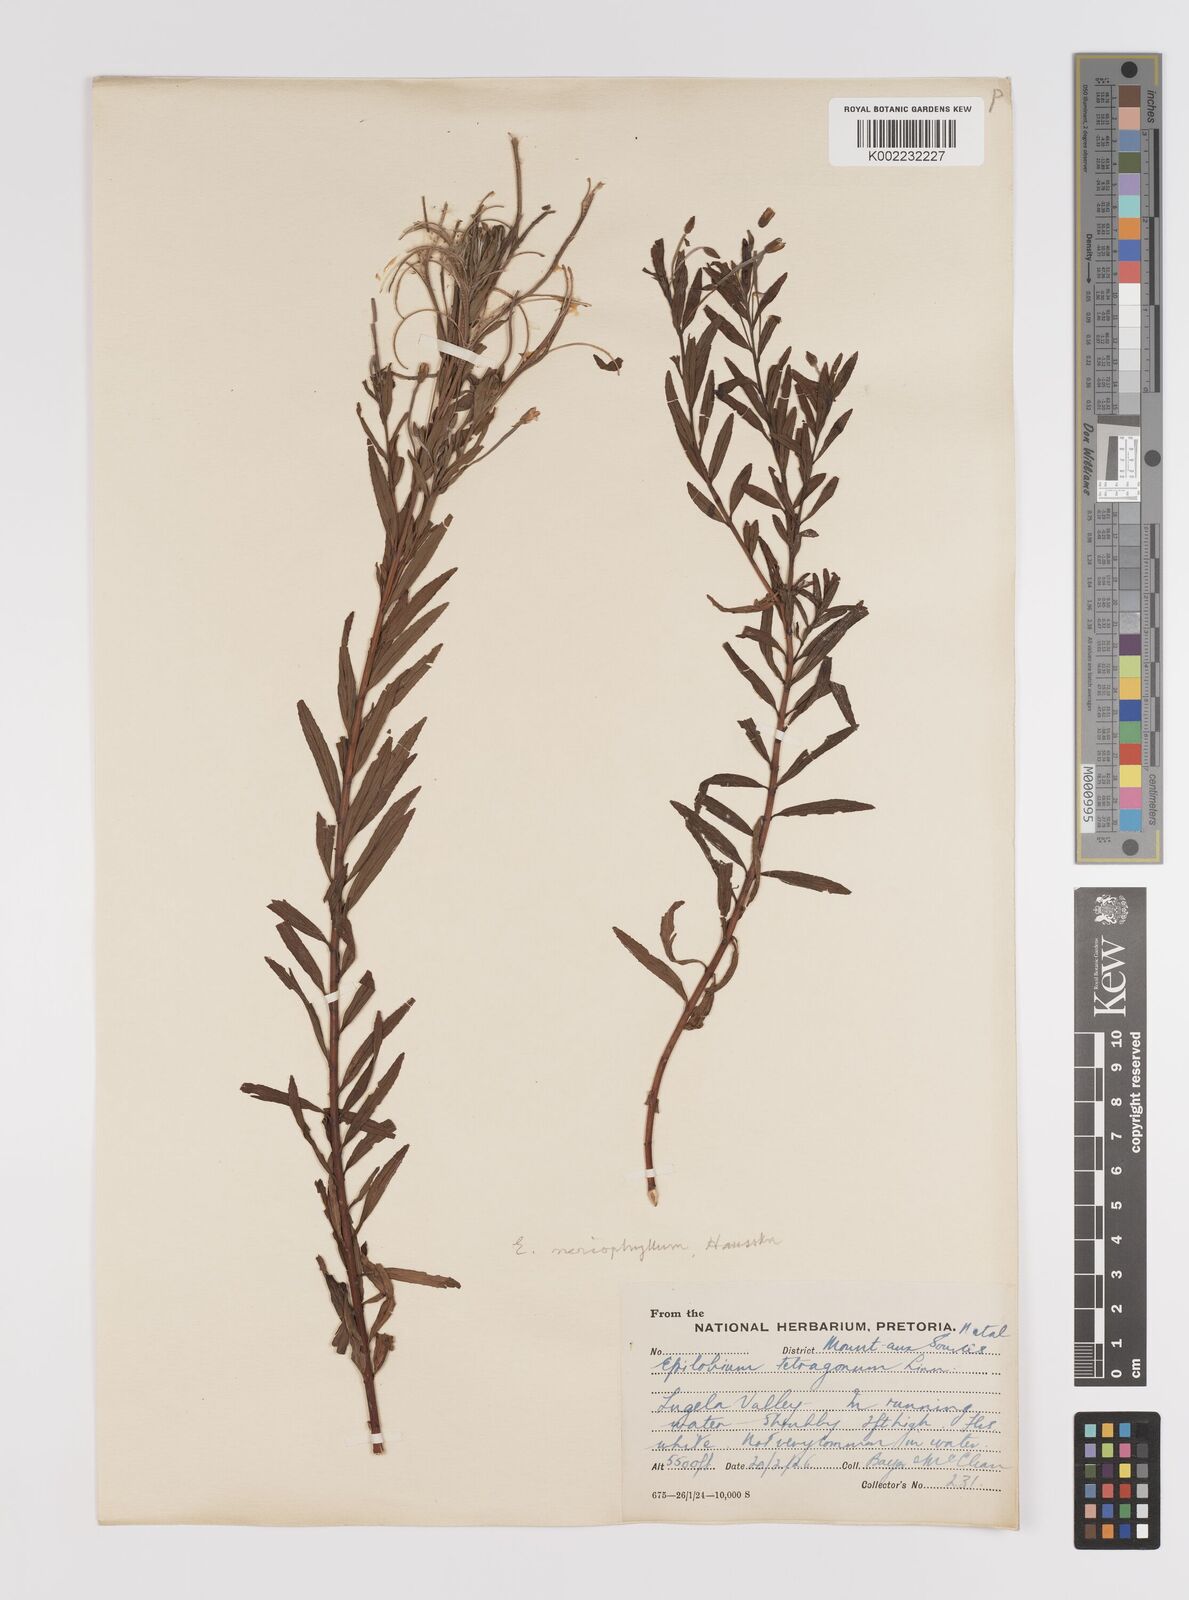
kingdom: Plantae
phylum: Tracheophyta
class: Magnoliopsida
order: Myrtales
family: Onagraceae
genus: Epilobium
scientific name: Epilobium salignum
